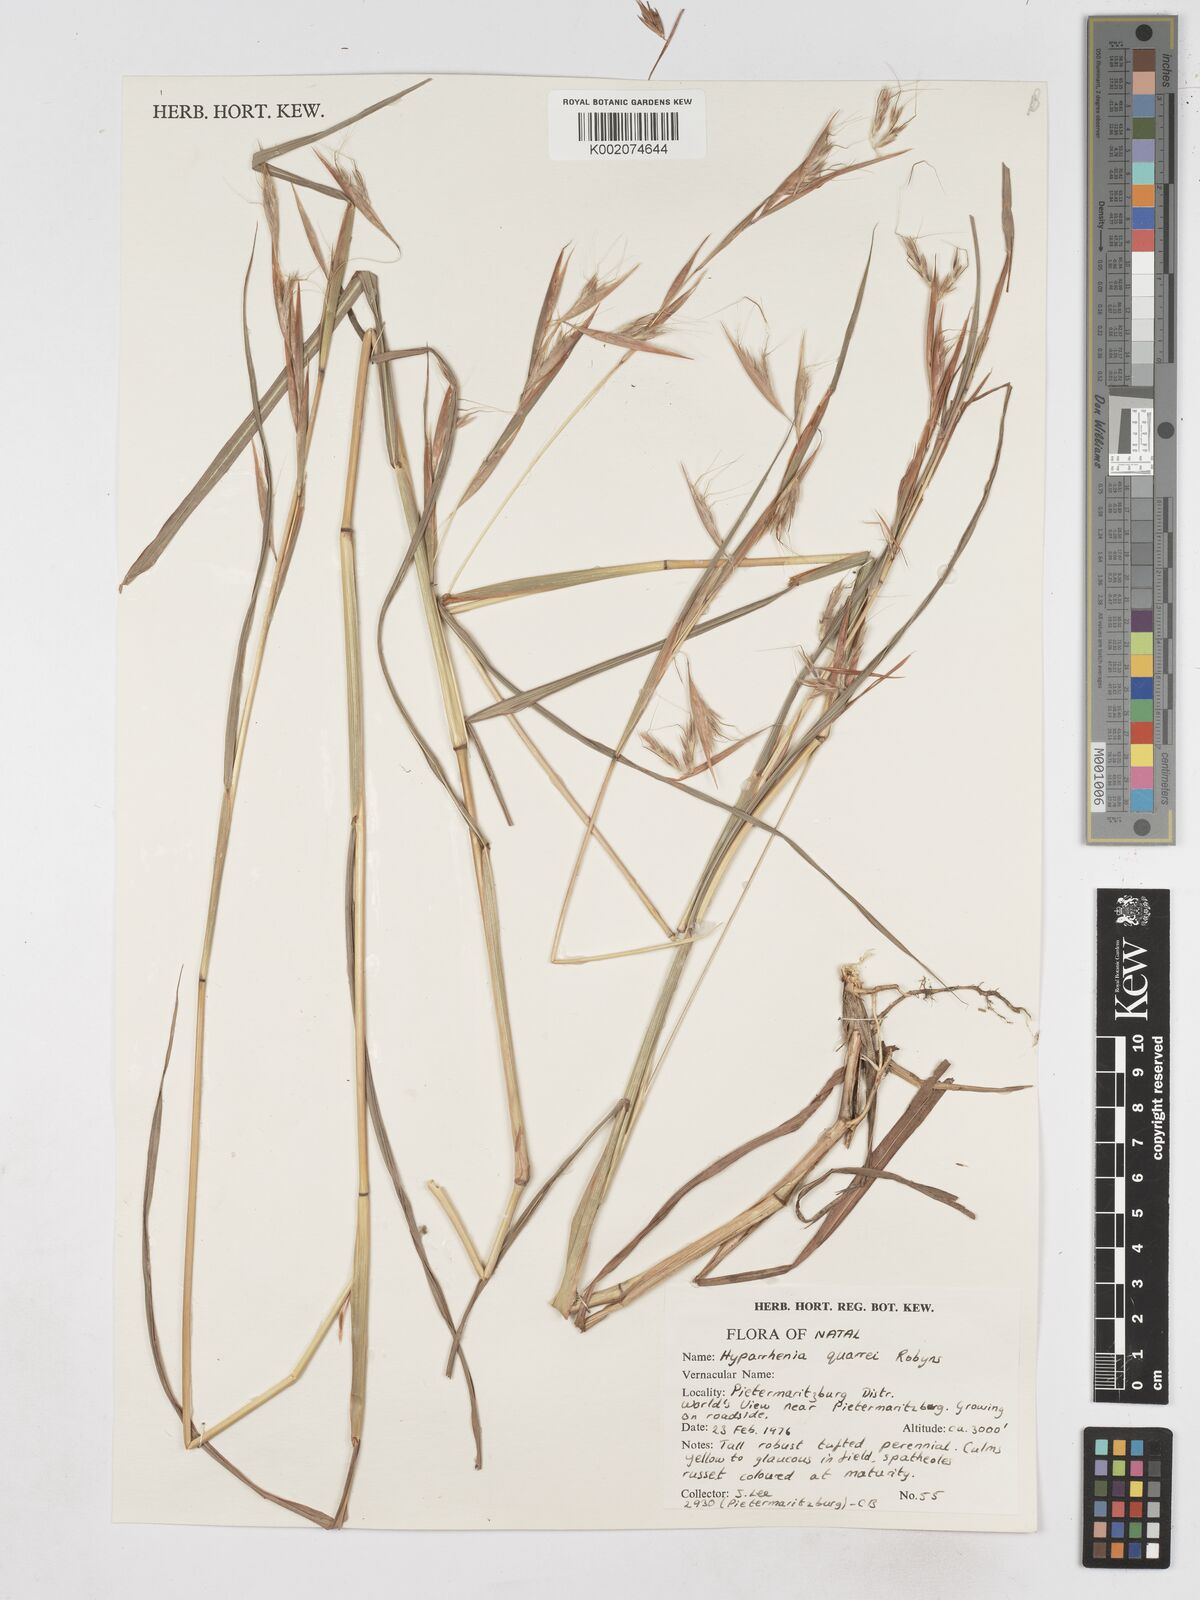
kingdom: Plantae
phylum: Tracheophyta
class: Liliopsida
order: Poales
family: Poaceae
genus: Hyparrhenia
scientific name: Hyparrhenia quarrei
